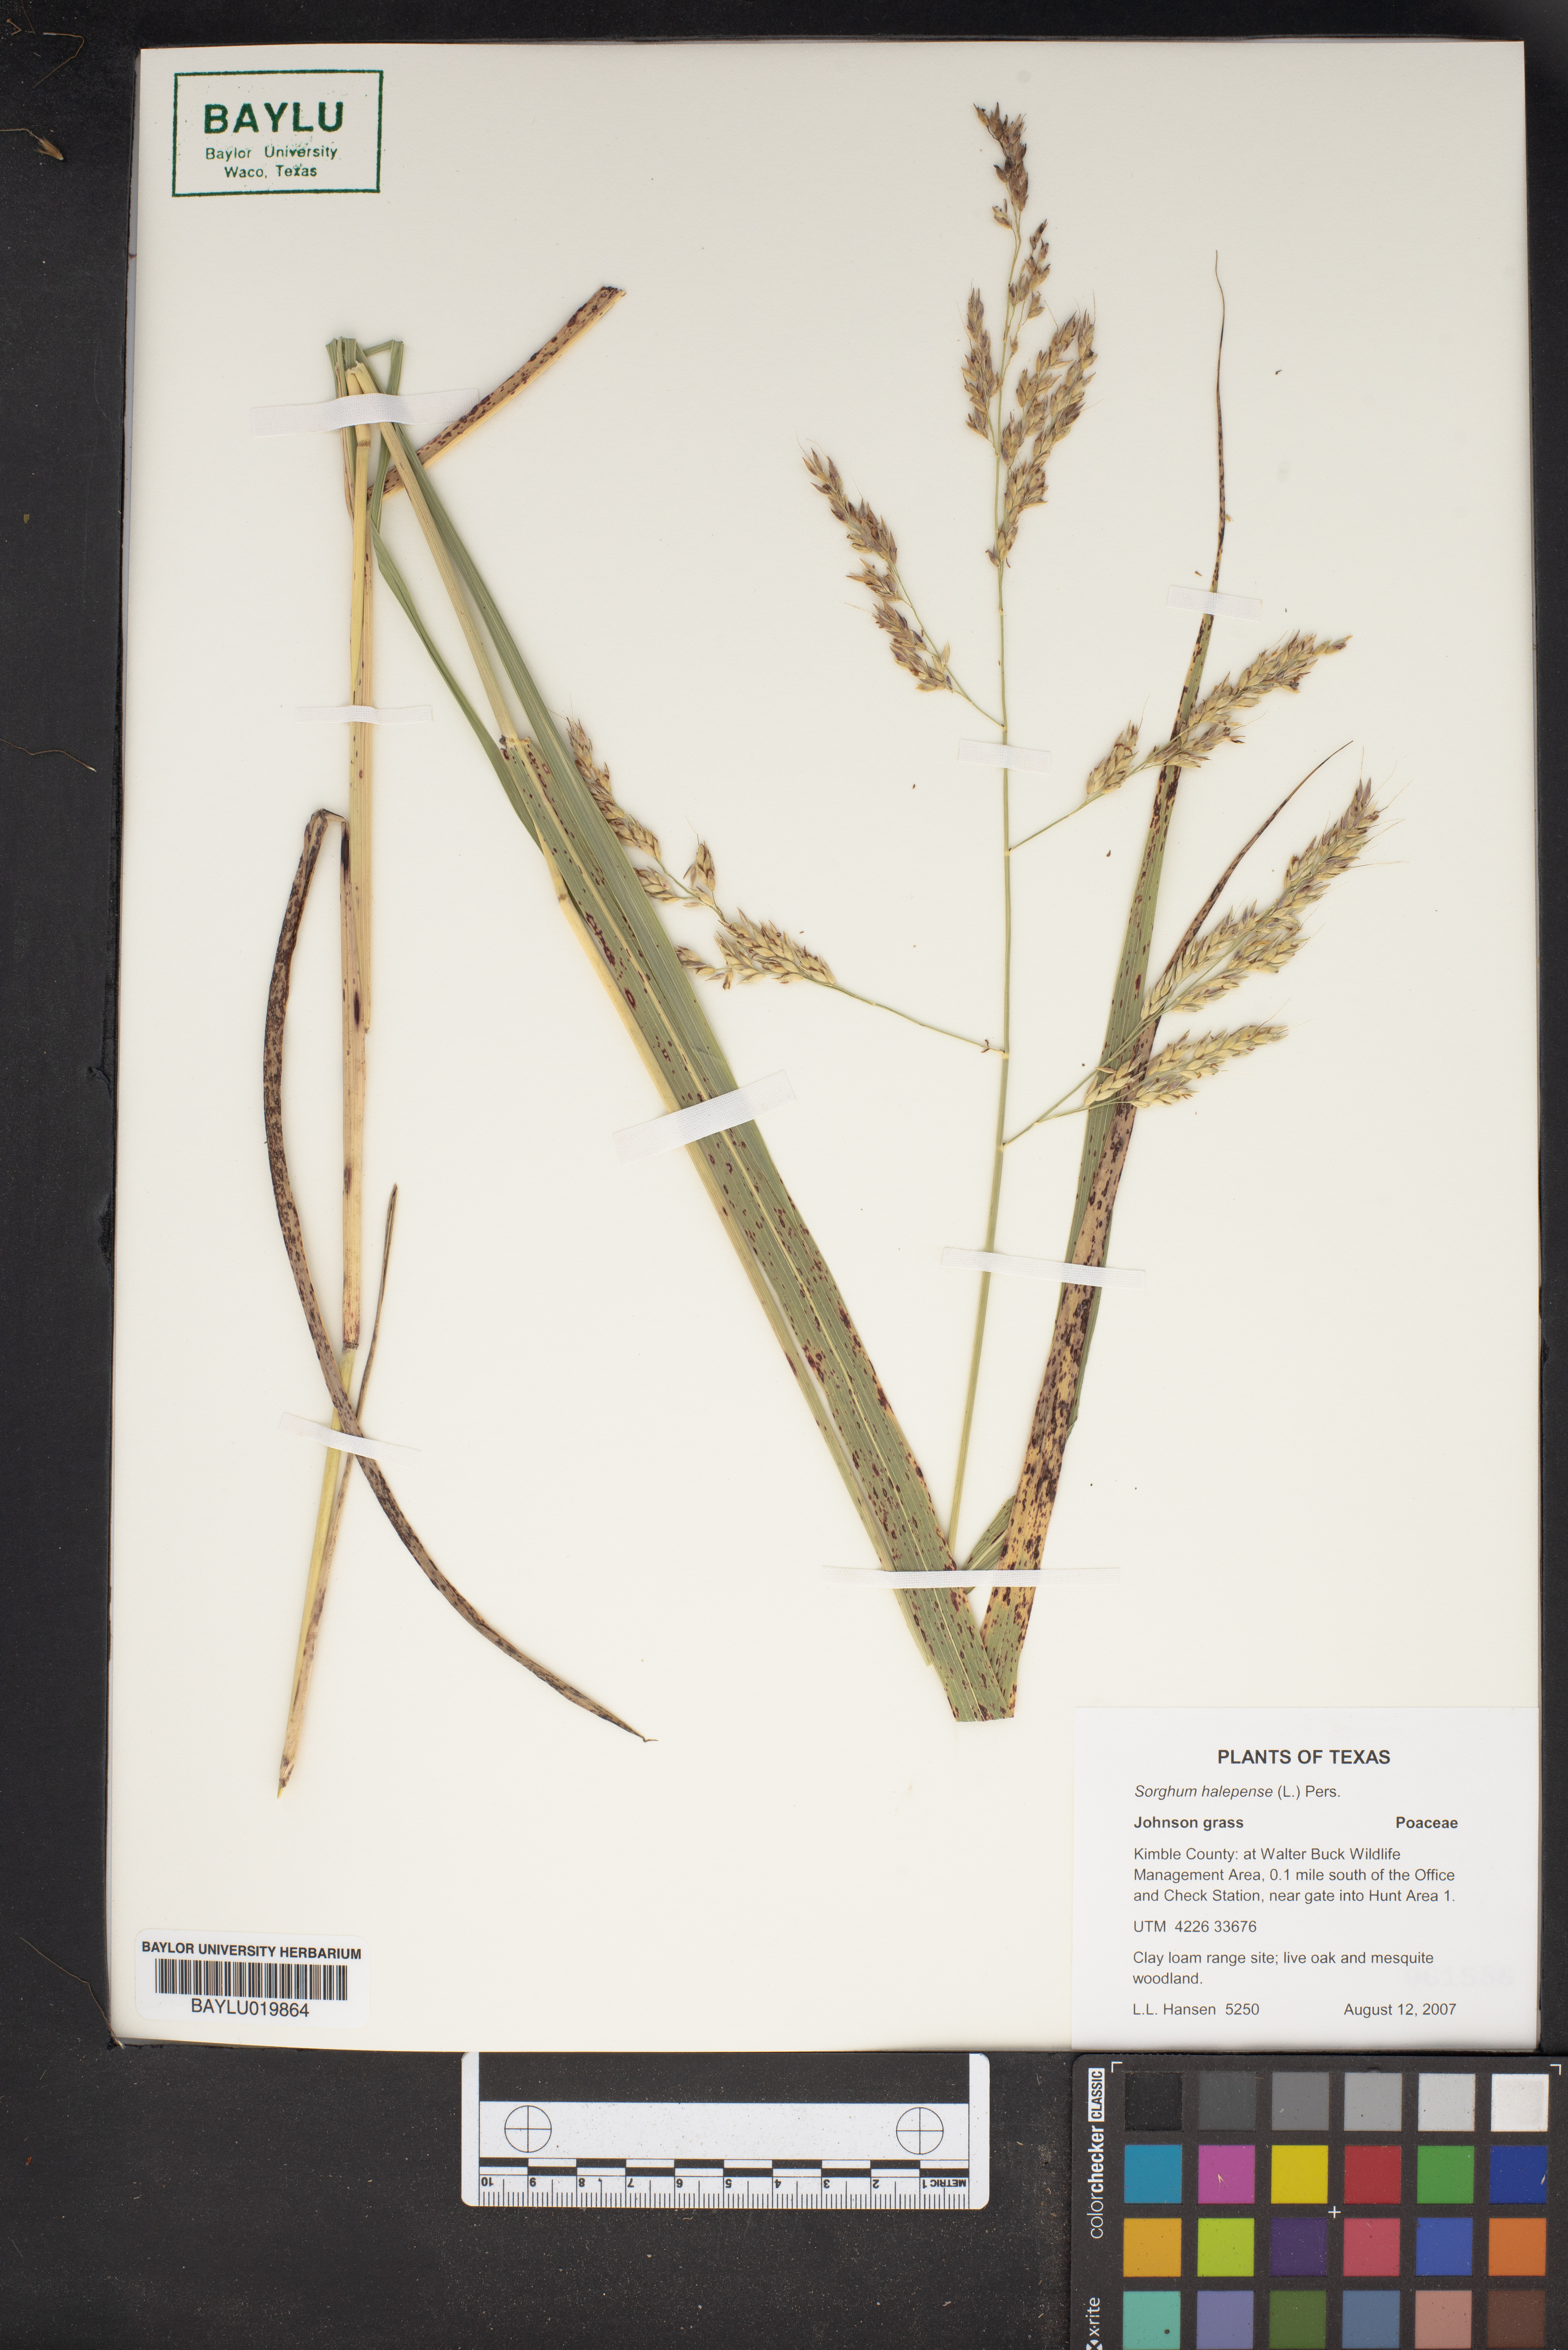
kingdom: Plantae
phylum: Tracheophyta
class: Liliopsida
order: Poales
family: Poaceae
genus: Sorghum
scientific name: Sorghum halepense
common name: Johnson-grass
